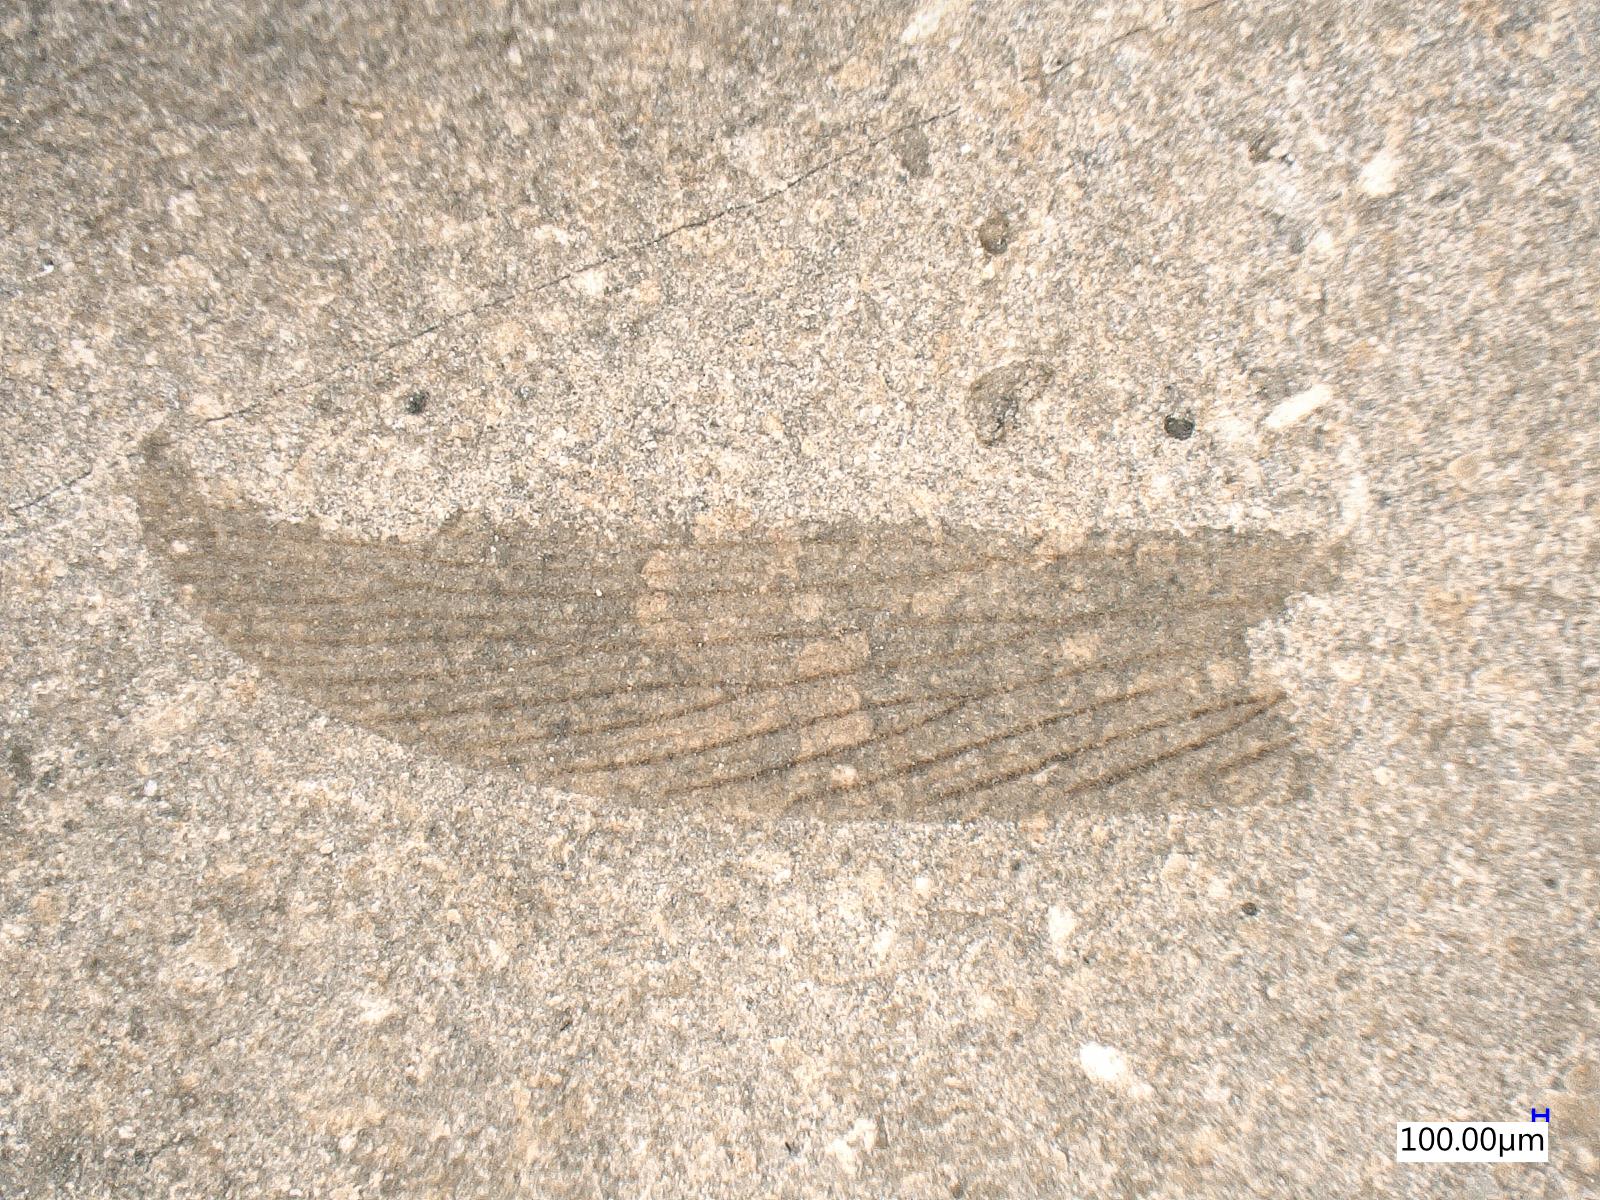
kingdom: Animalia
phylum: Arthropoda
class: Insecta
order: Blattodea
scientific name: Blattodea
